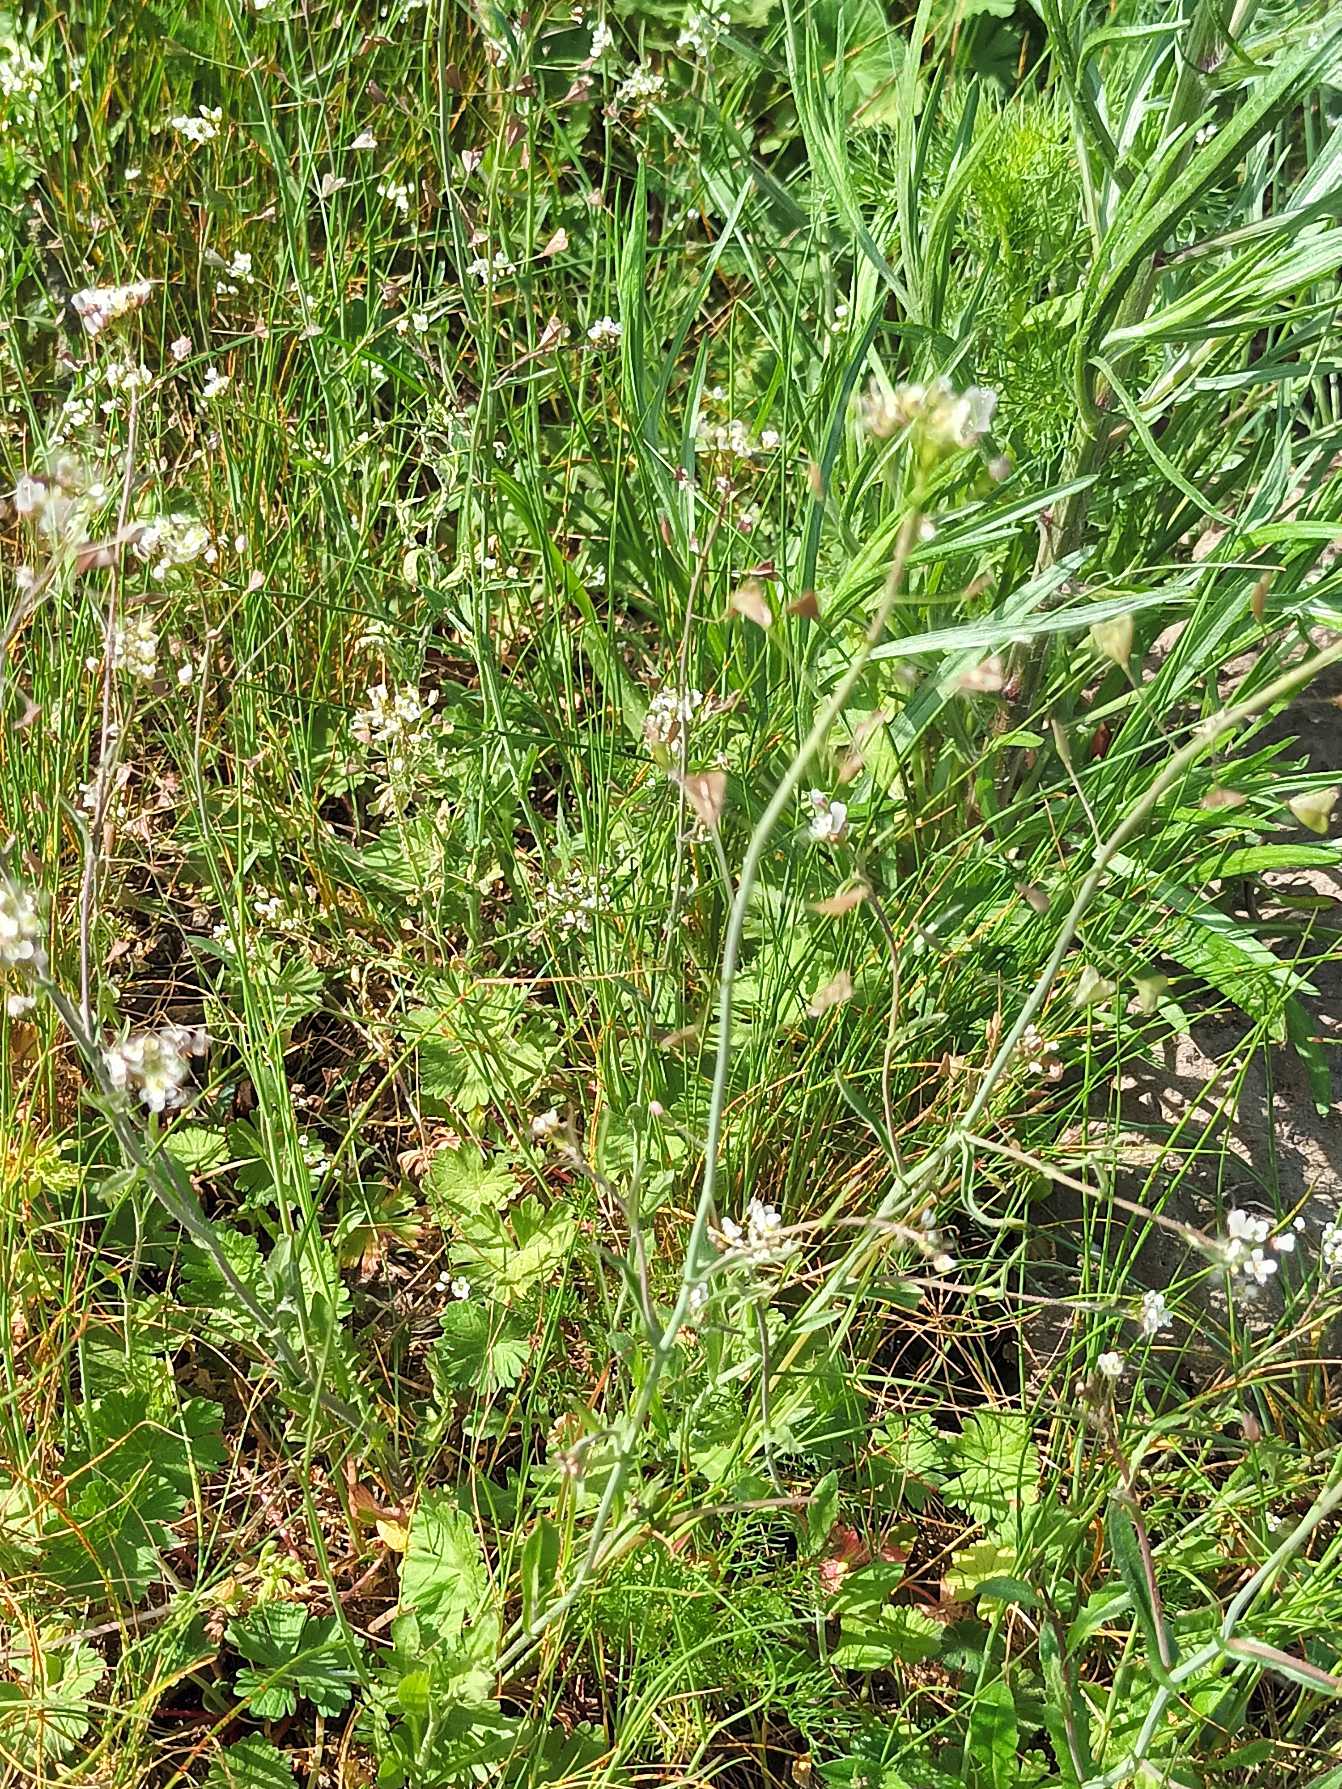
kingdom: Plantae
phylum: Tracheophyta
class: Magnoliopsida
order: Brassicales
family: Brassicaceae
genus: Capsella
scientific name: Capsella bursa-pastoris
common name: Hyrdetaske
